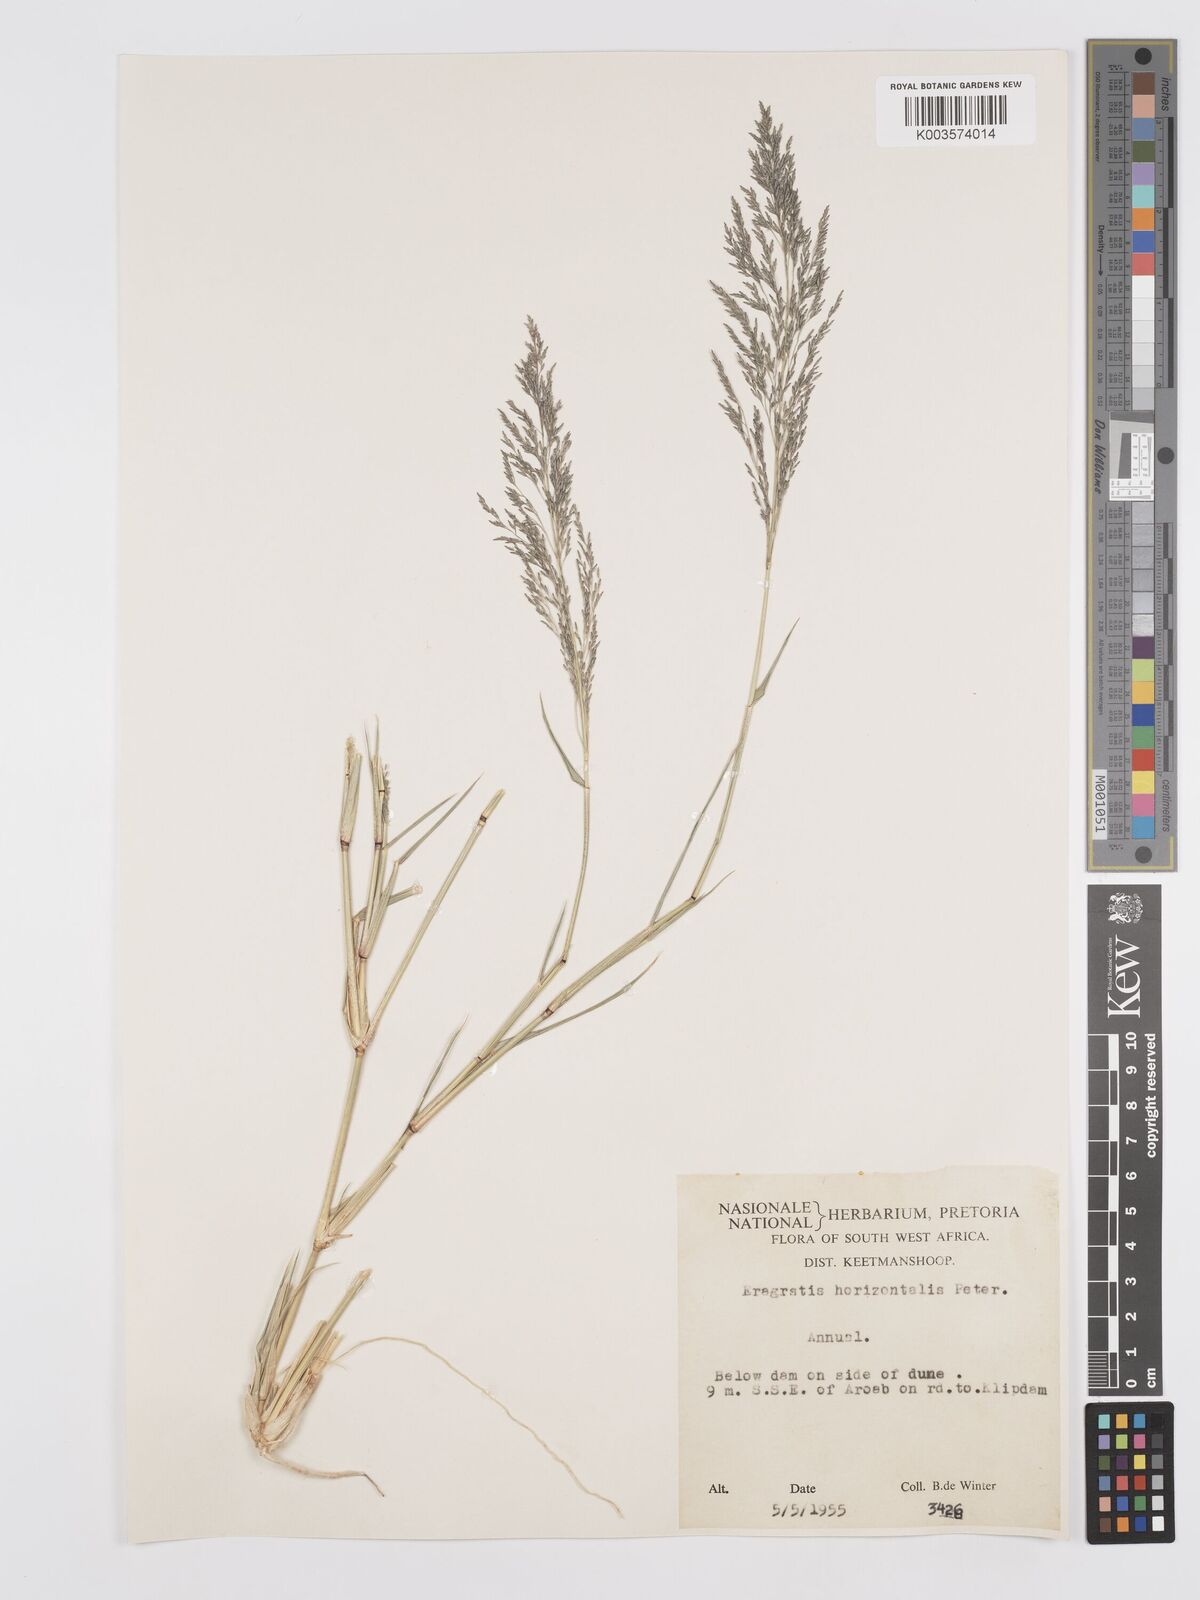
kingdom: Plantae
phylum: Tracheophyta
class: Liliopsida
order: Poales
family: Poaceae
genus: Eragrostis
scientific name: Eragrostis cylindriflora
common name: Cylinderflower lovegrass
